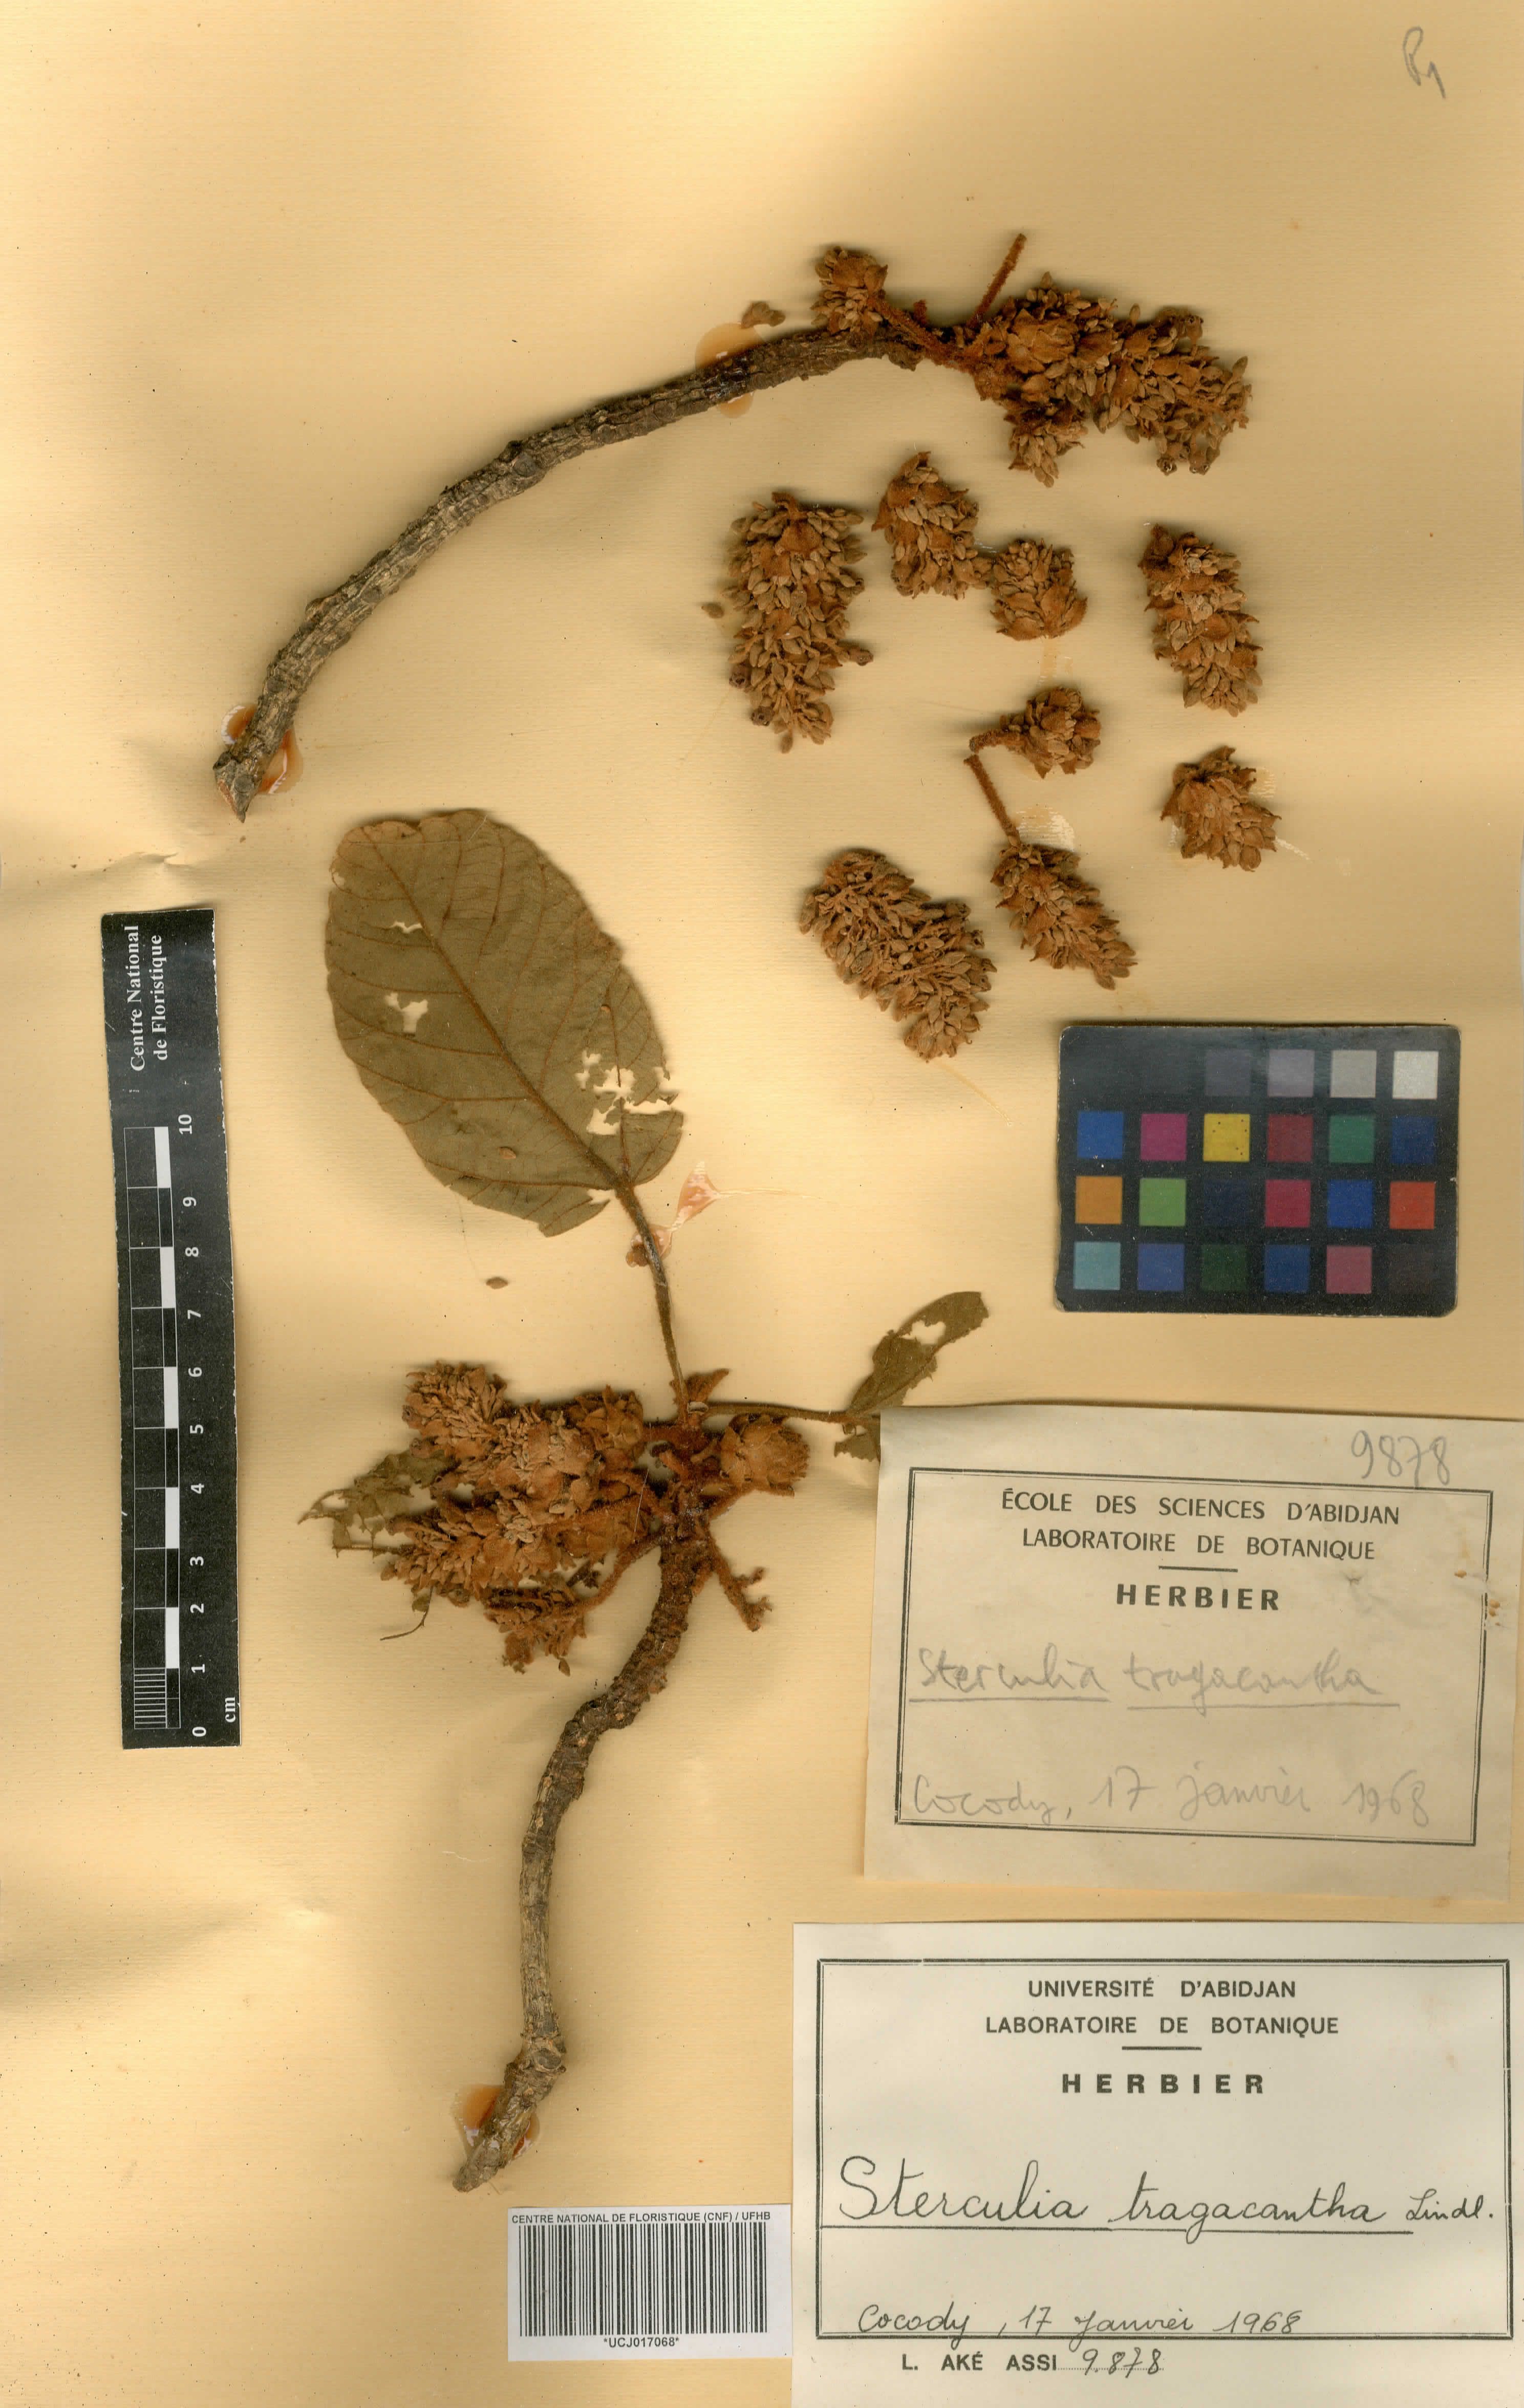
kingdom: Plantae
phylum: Tracheophyta
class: Magnoliopsida
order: Malvales
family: Malvaceae
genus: Sterculia
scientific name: Sterculia tragacantha
